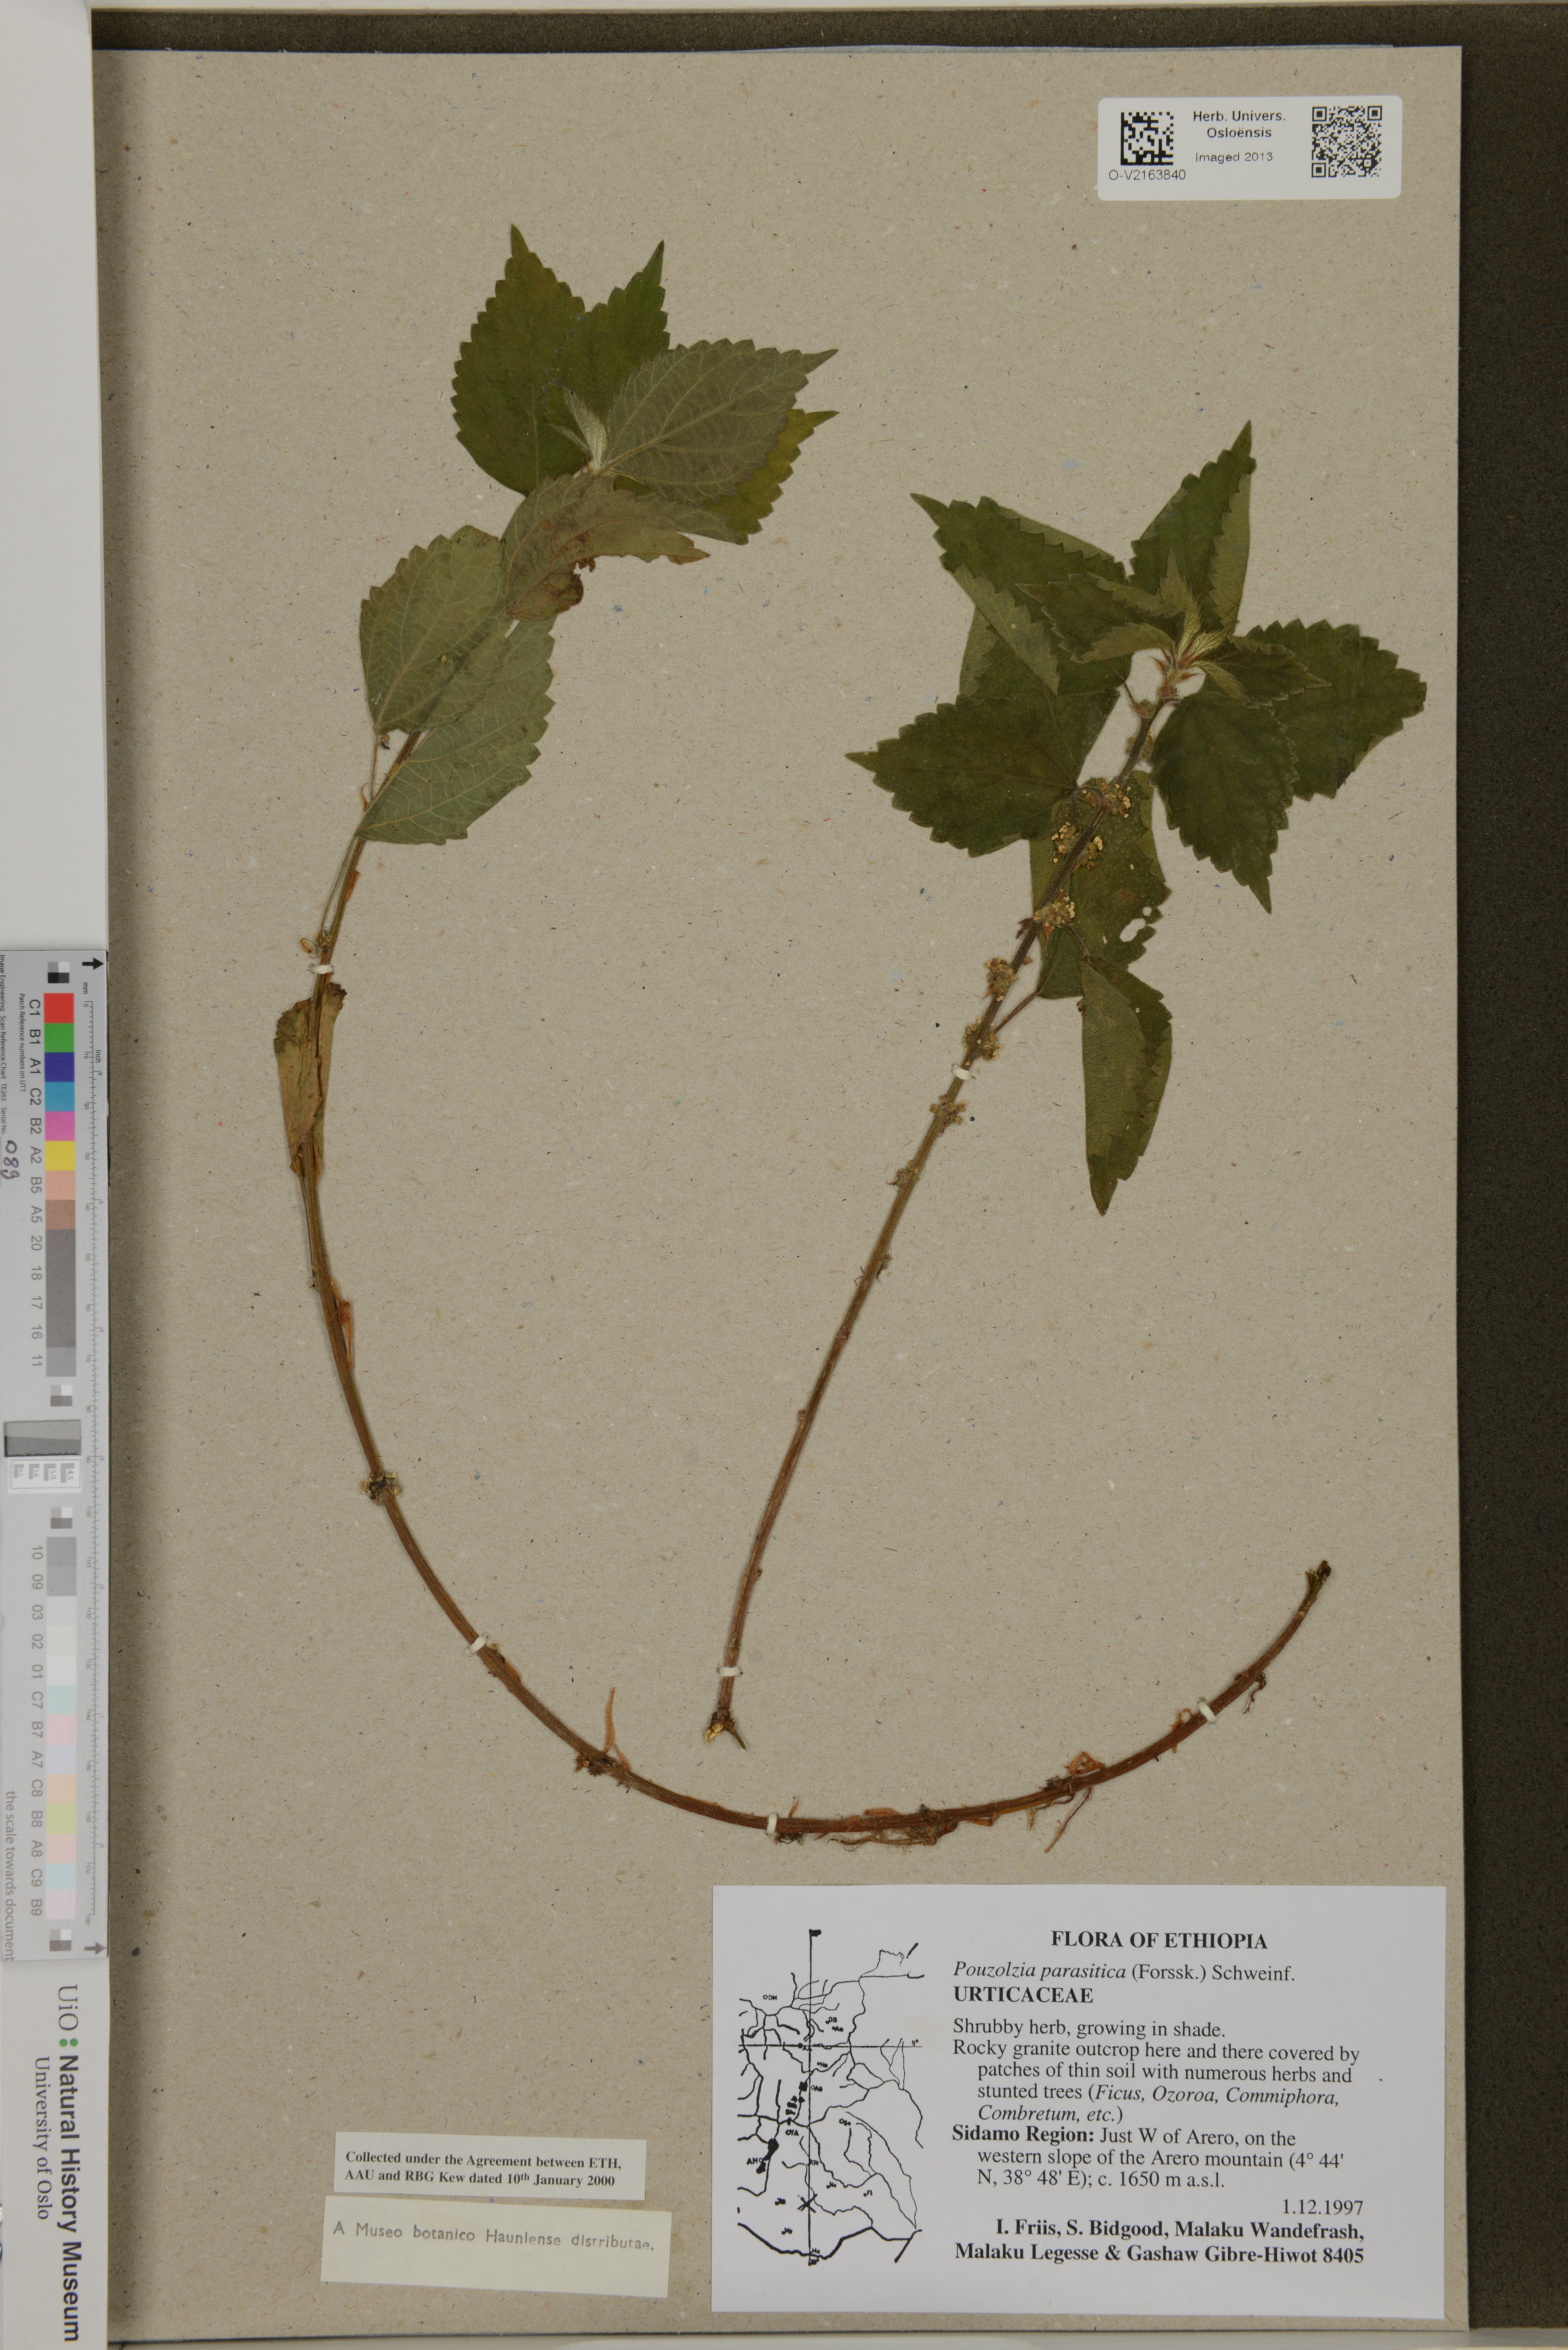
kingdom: Plantae
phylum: Tracheophyta
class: Magnoliopsida
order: Rosales
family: Urticaceae
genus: Pouzolzia
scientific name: Pouzolzia parasitica
